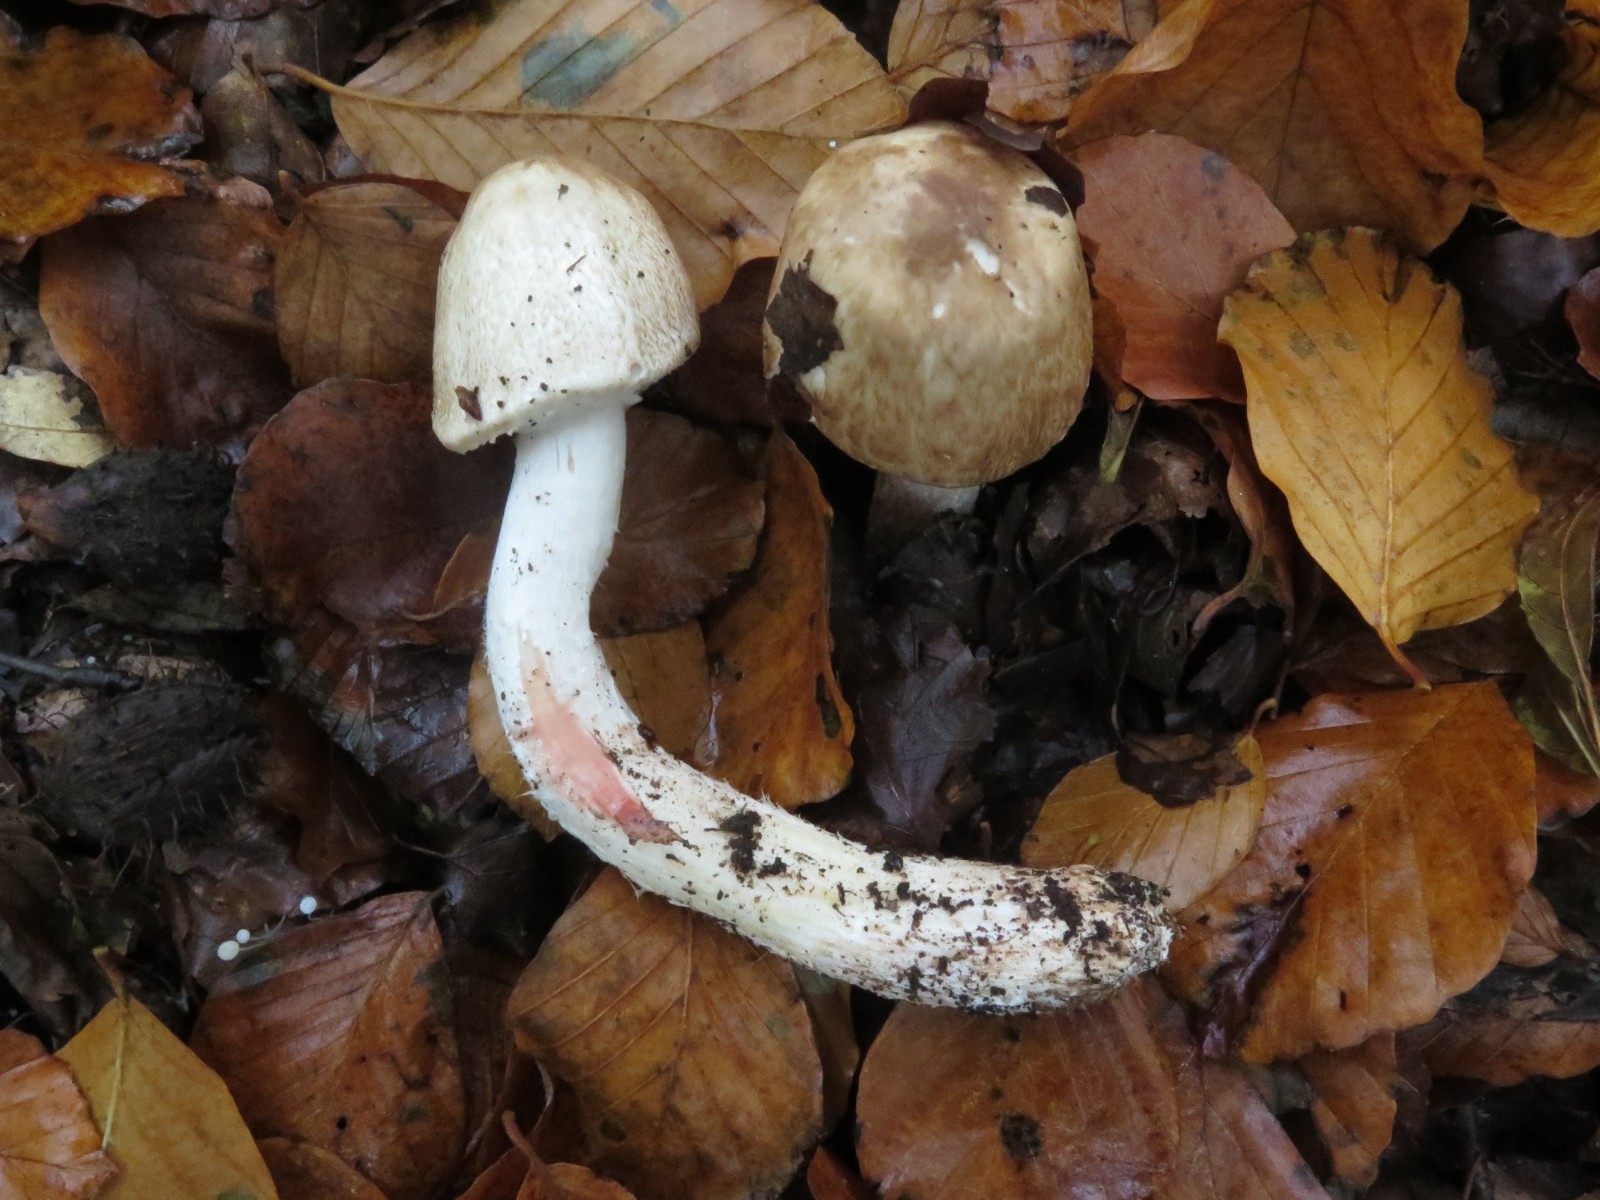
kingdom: Fungi
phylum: Basidiomycota
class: Agaricomycetes
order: Agaricales
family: Agaricaceae
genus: Agaricus
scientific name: Agaricus sylvaticus
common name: lille blod-champignon
